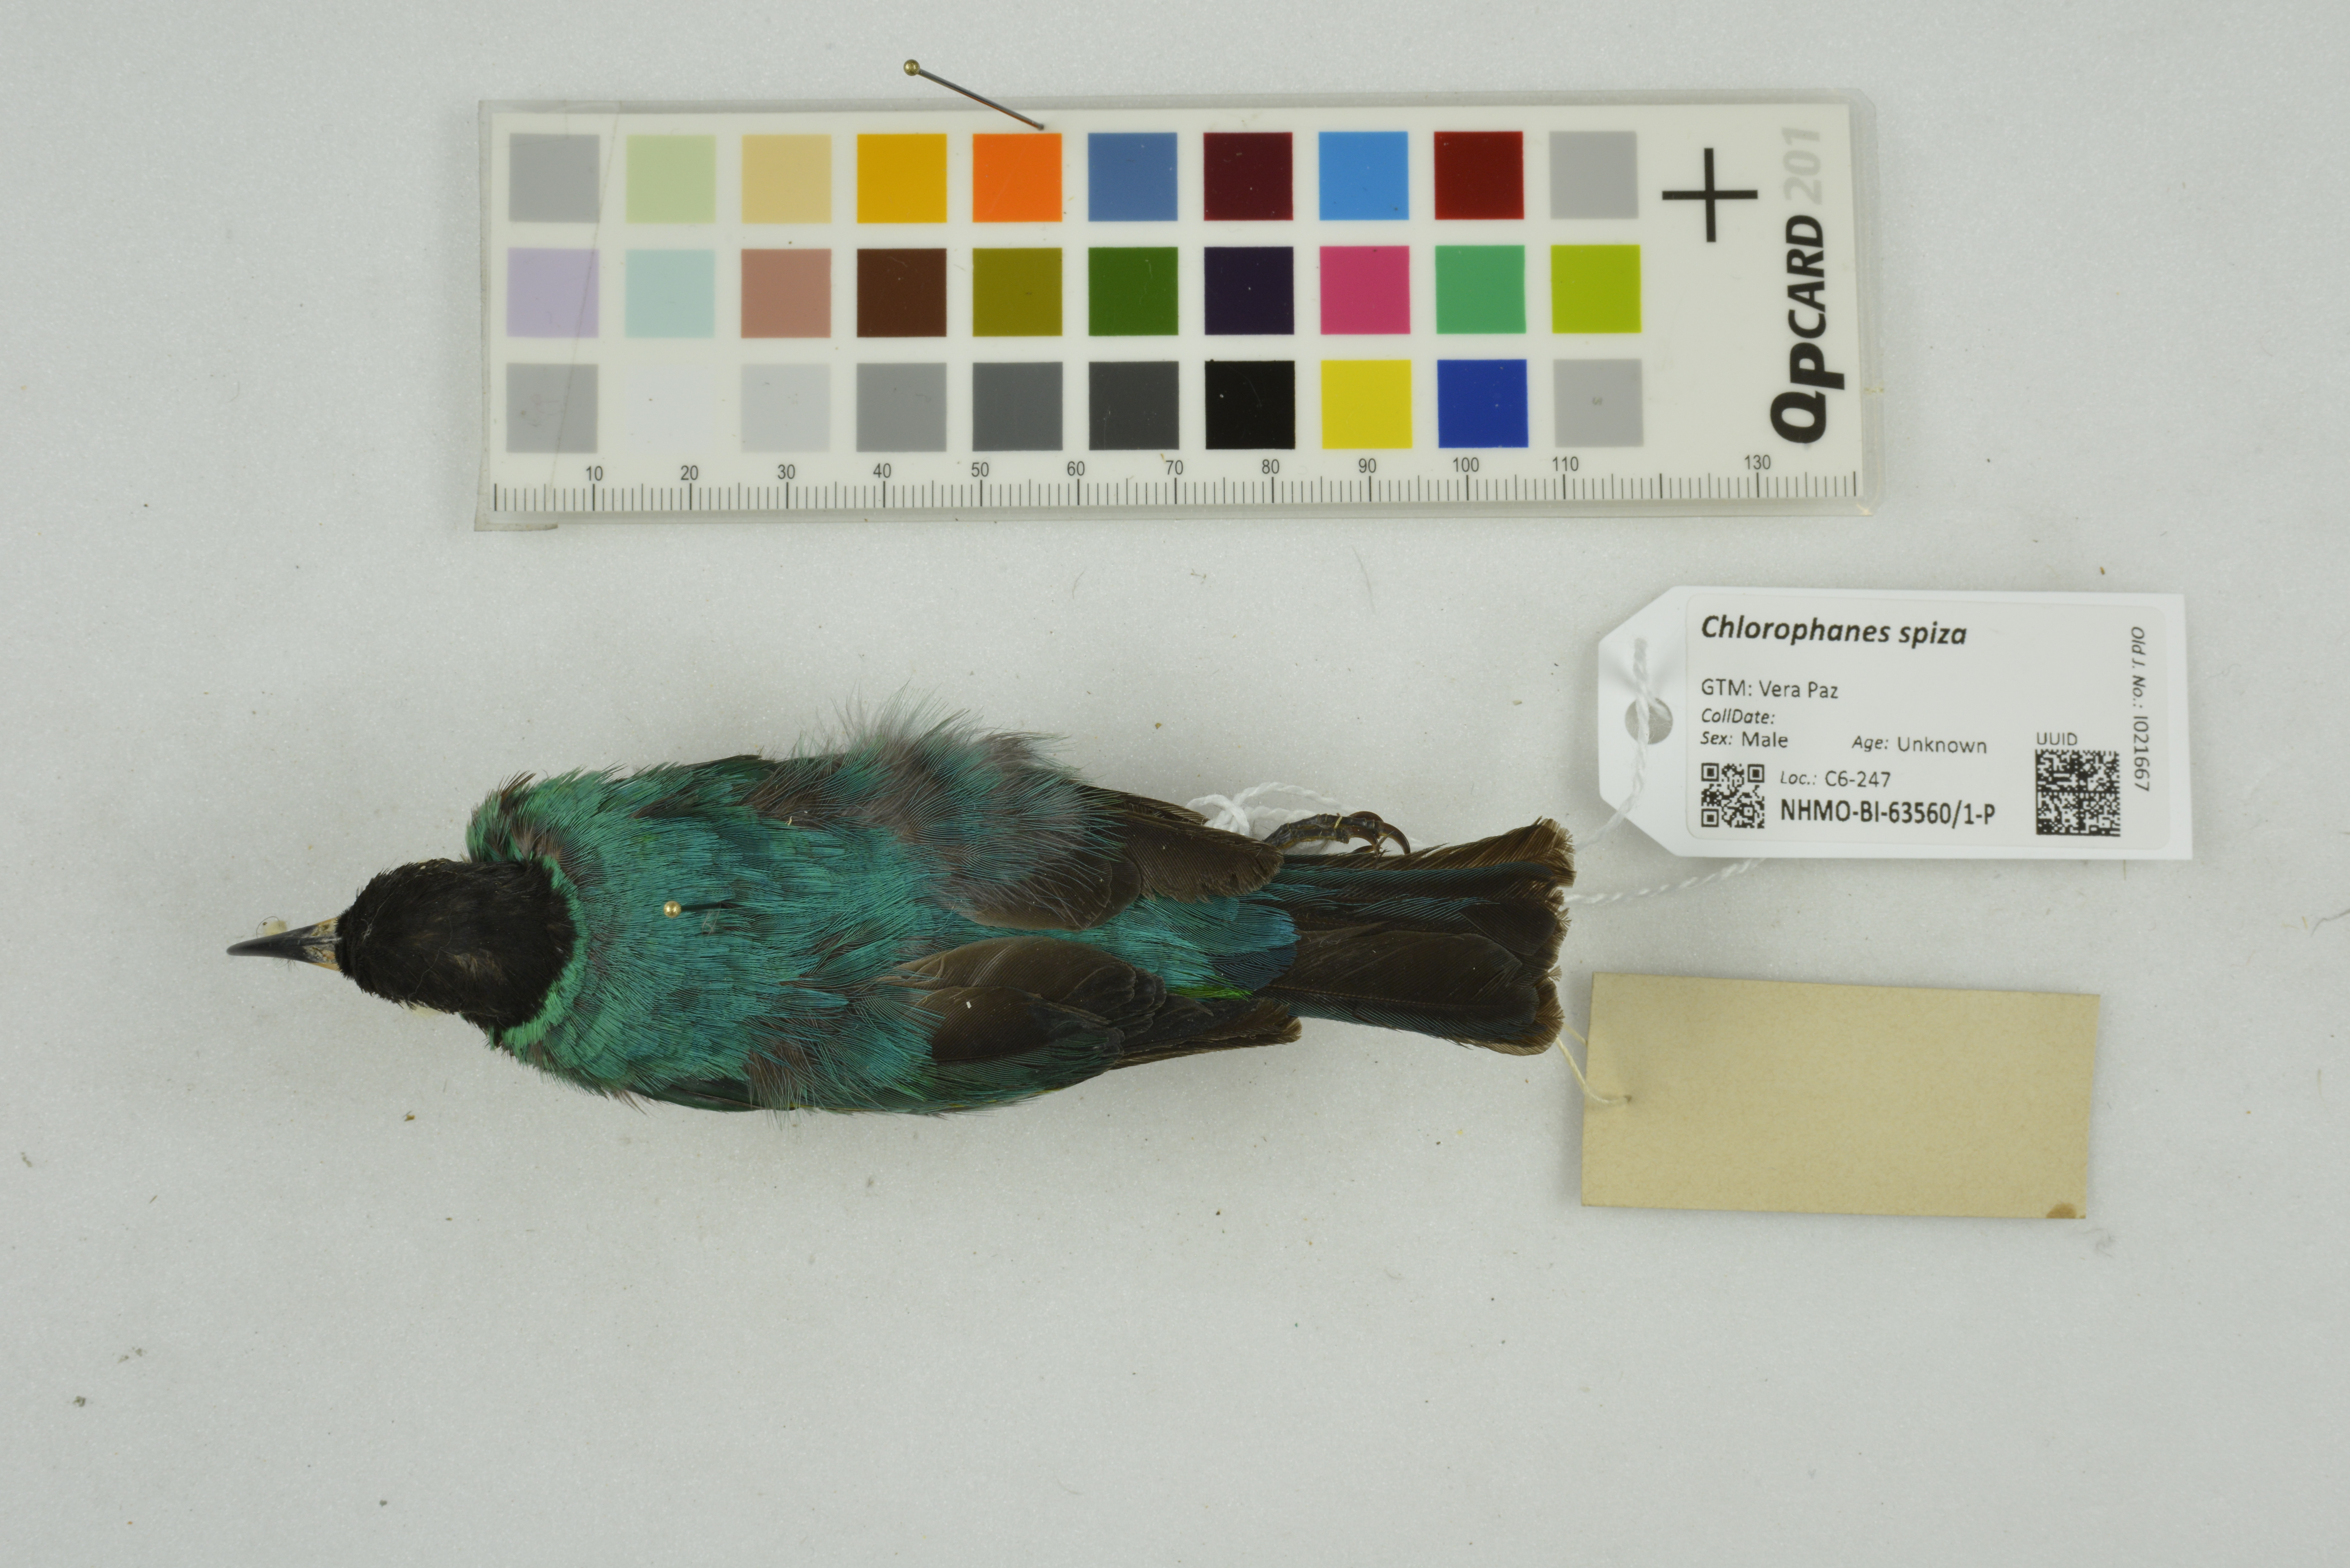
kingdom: Animalia
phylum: Chordata
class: Aves
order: Passeriformes
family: Thraupidae
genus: Chlorophanes
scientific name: Chlorophanes spiza
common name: Green honeycreeper
